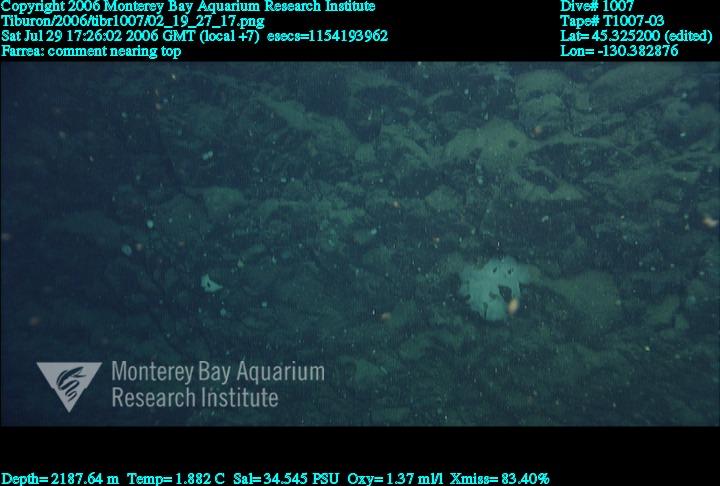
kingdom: Animalia
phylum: Porifera
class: Hexactinellida
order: Sceptrulophora
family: Farreidae
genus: Farrea
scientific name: Farrea
